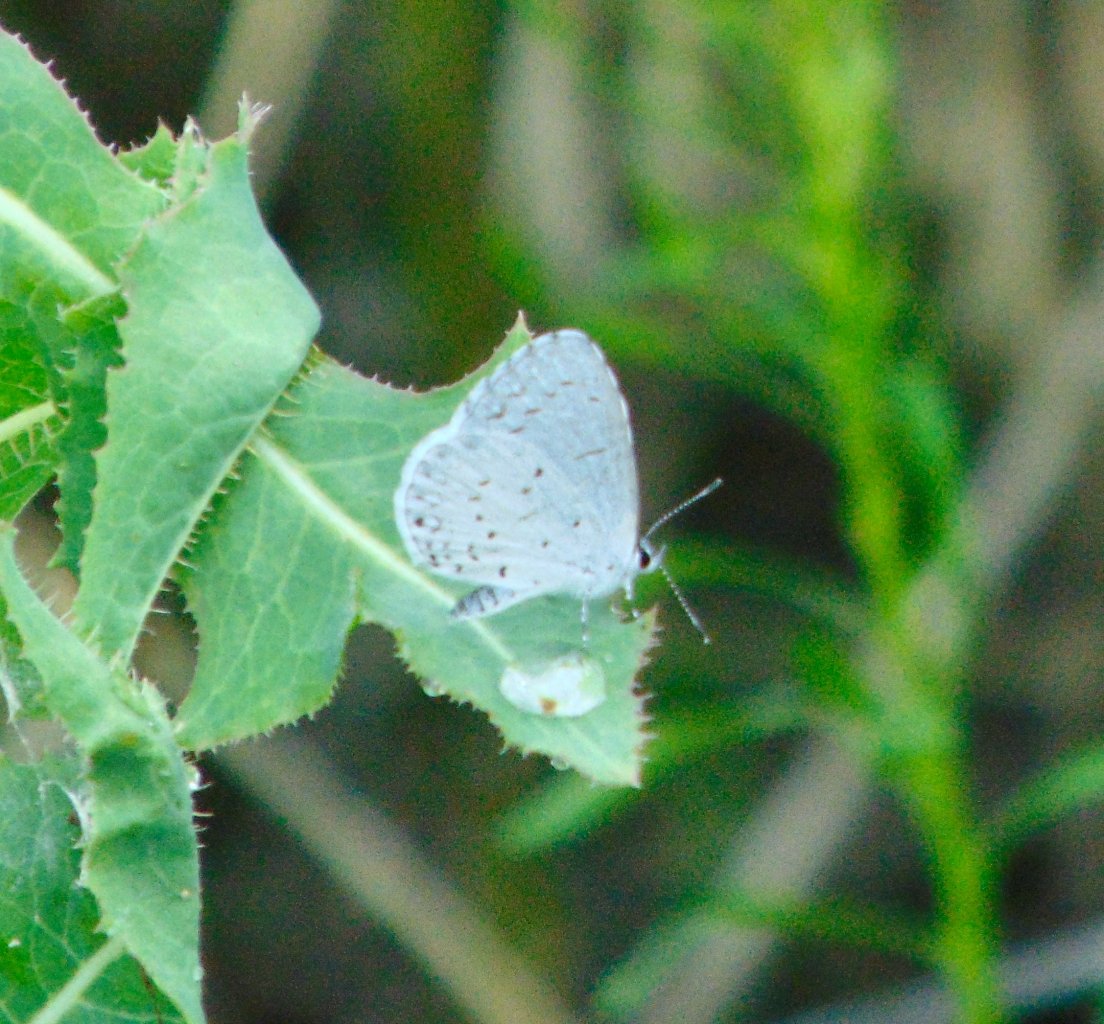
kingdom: Animalia
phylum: Arthropoda
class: Insecta
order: Lepidoptera
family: Lycaenidae
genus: Cyaniris
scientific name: Cyaniris neglecta
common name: Summer Azure
